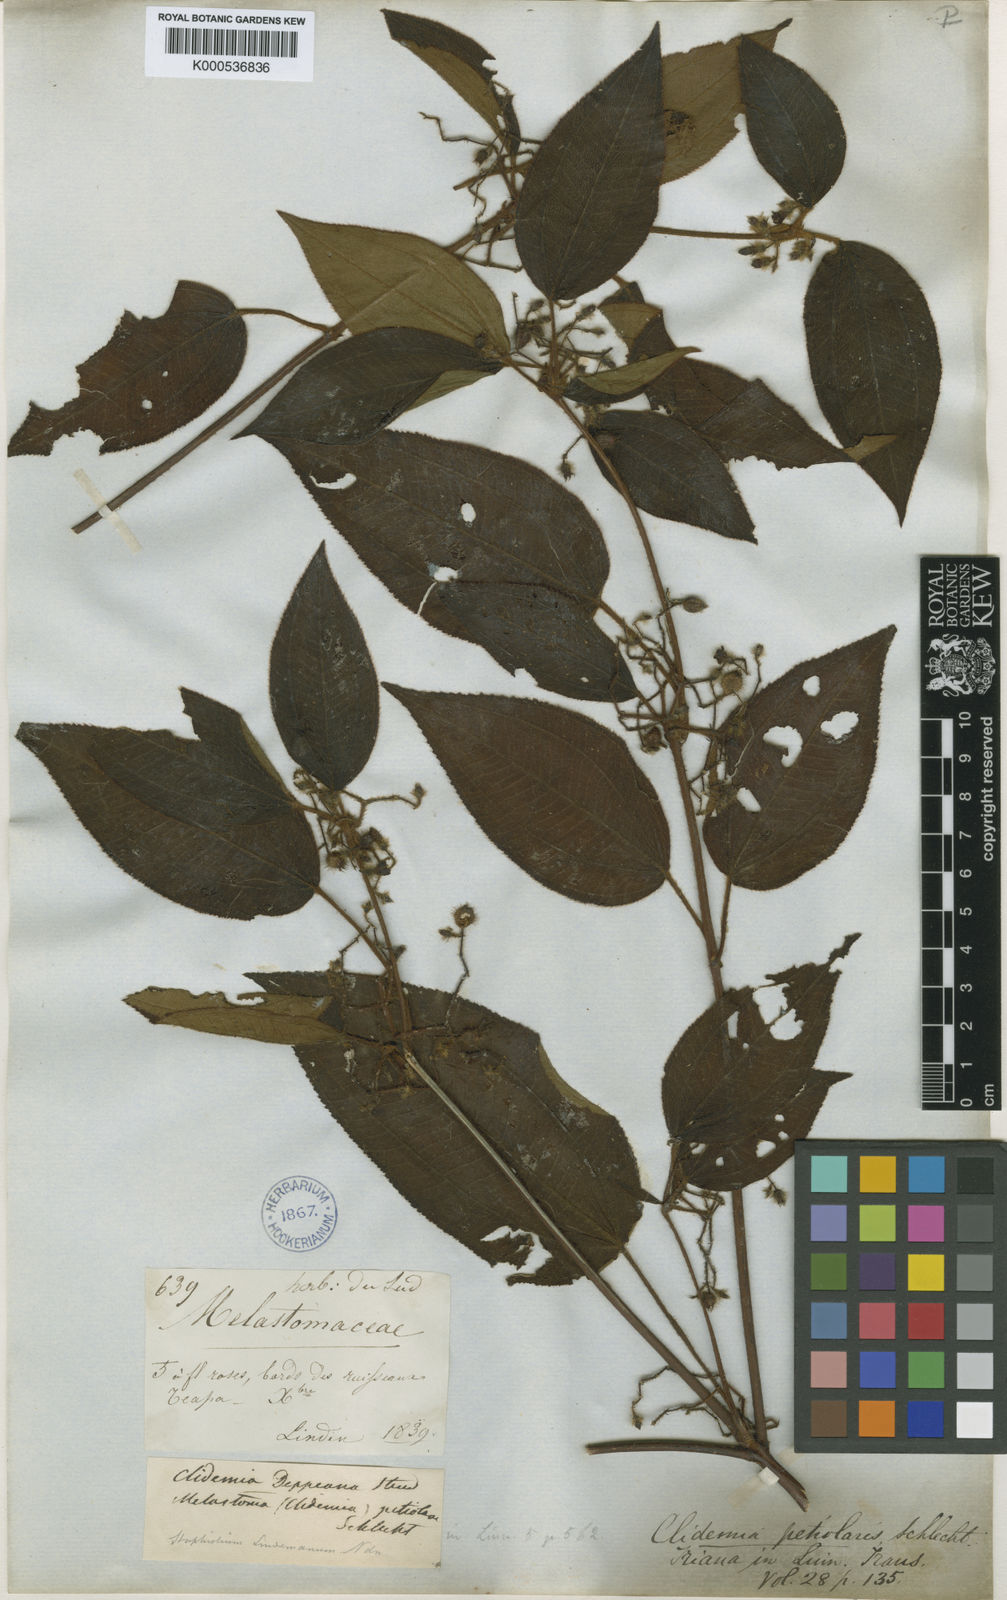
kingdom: Plantae
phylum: Tracheophyta
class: Magnoliopsida
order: Myrtales
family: Melastomataceae
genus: Miconia
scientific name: Miconia petiolaris
